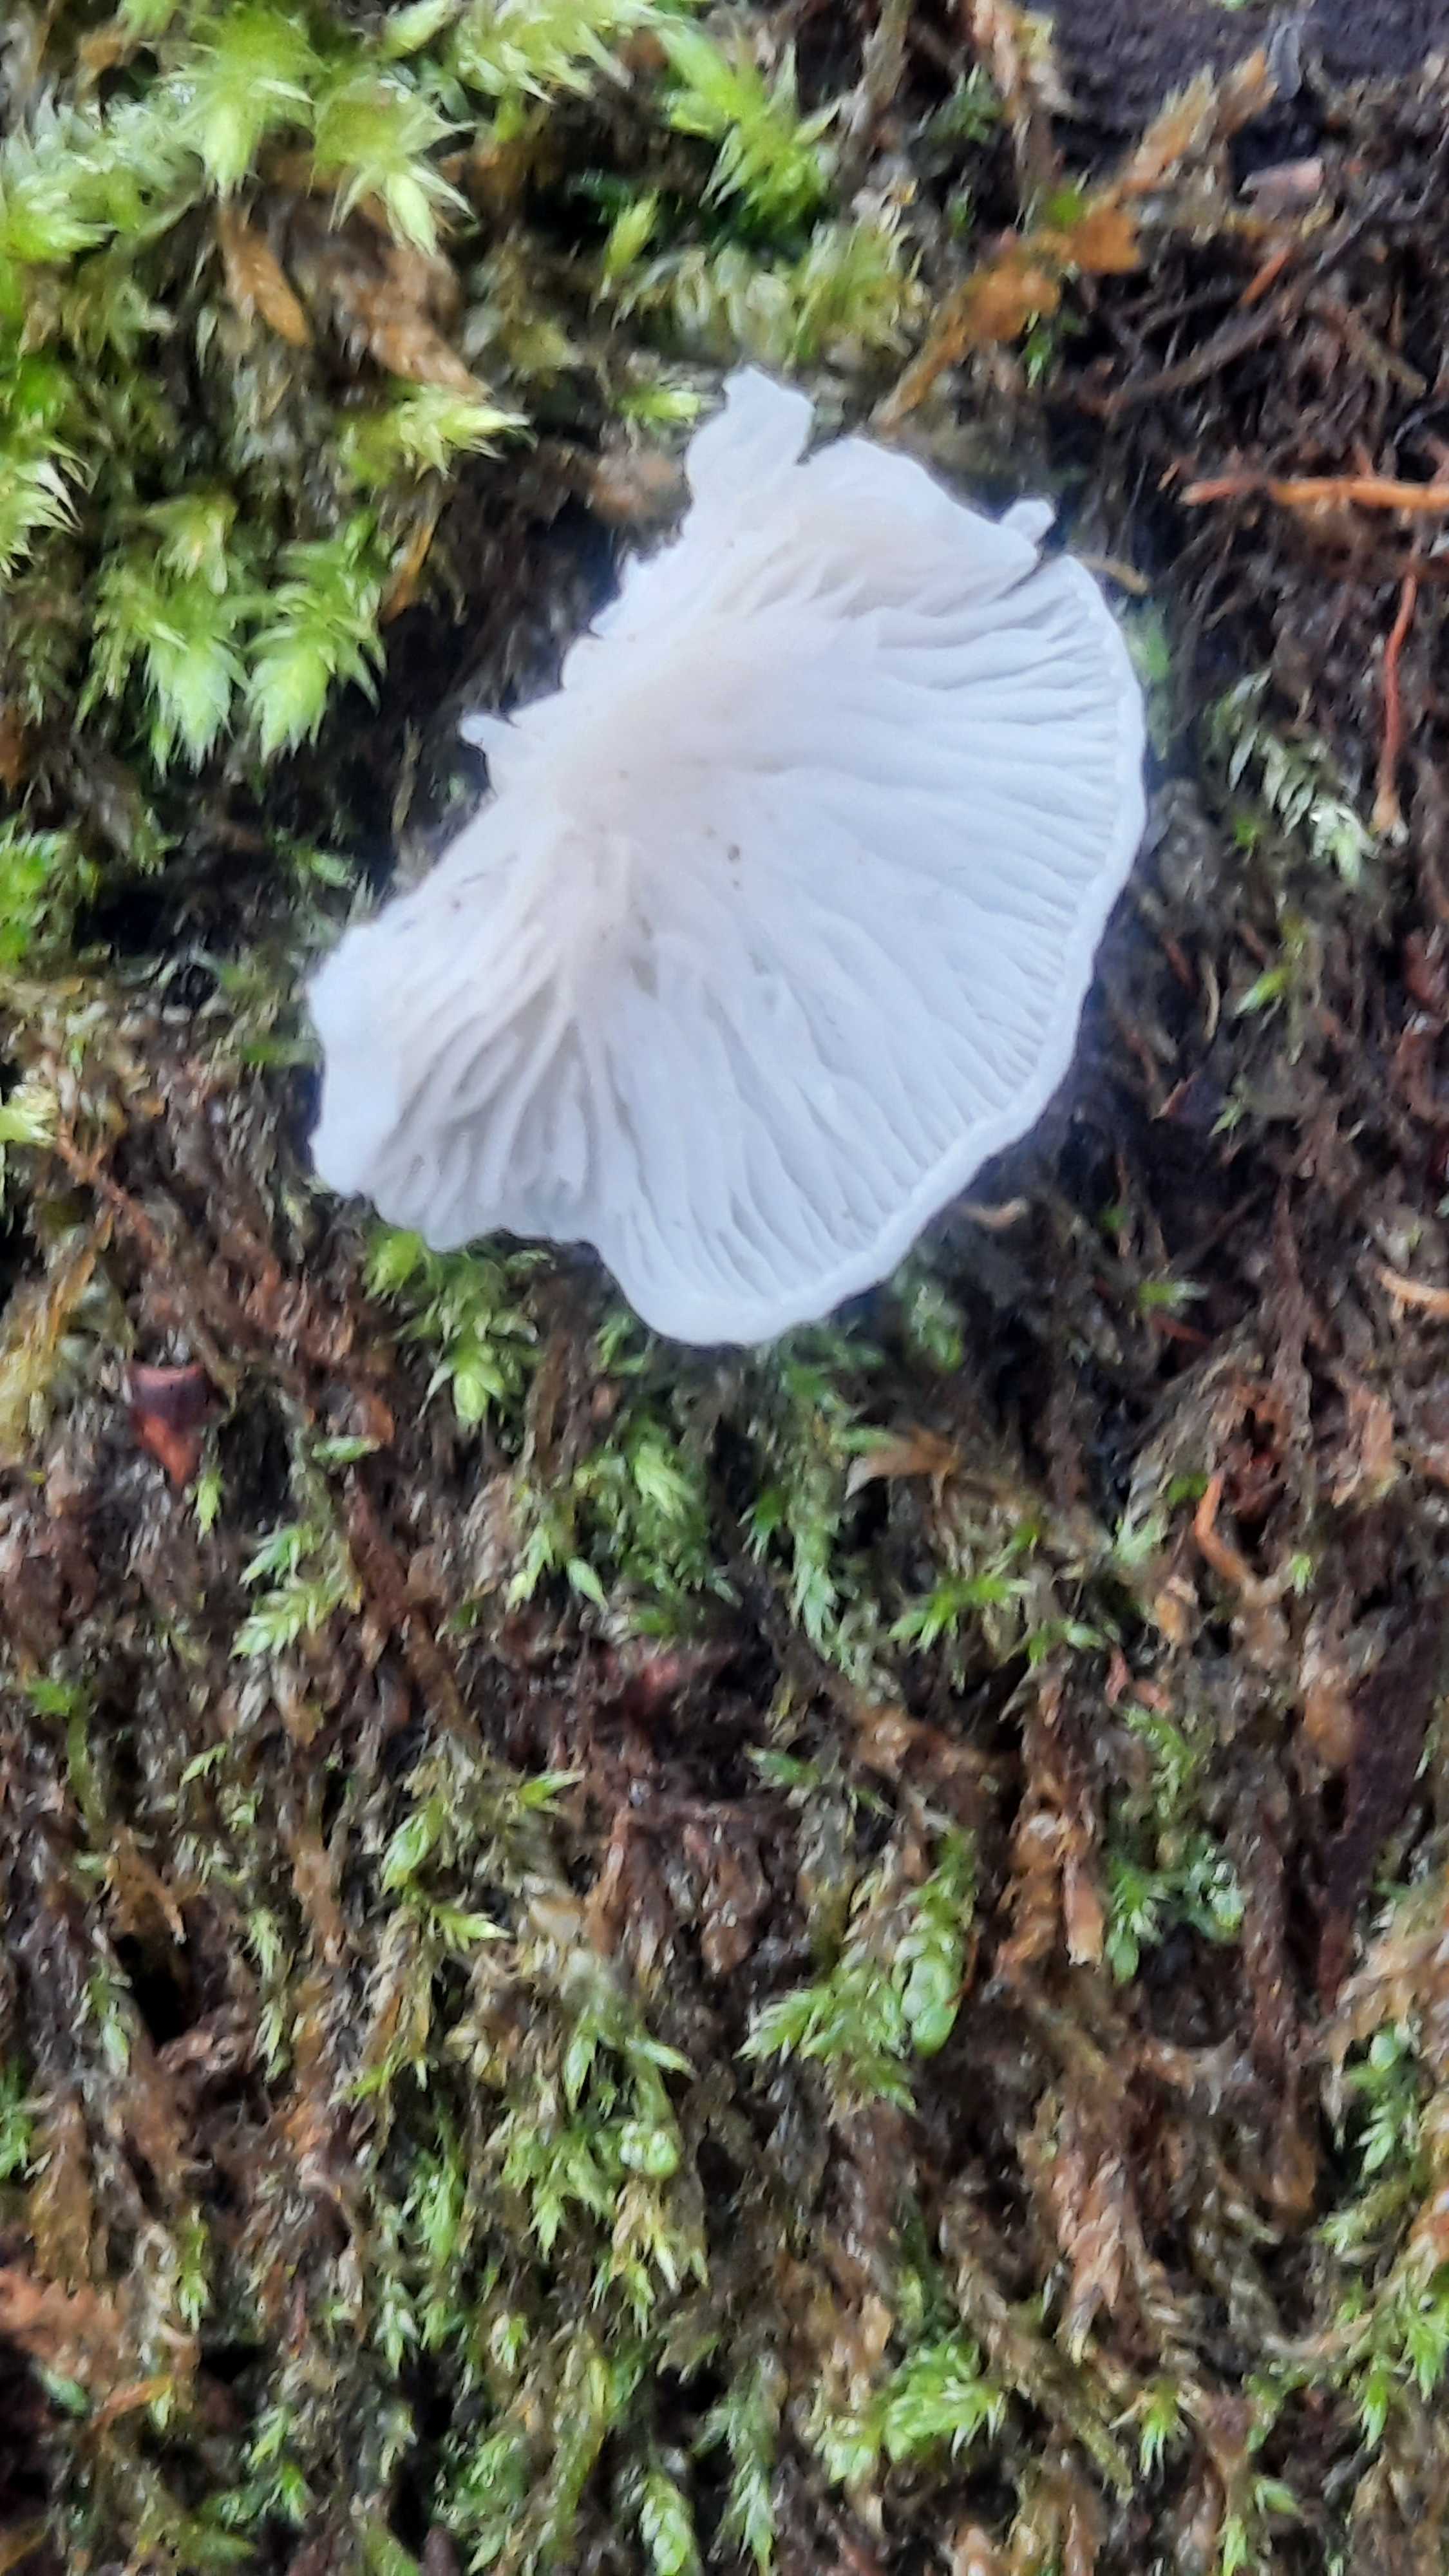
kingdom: Fungi
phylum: Basidiomycota
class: Agaricomycetes
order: Agaricales
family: Entolomataceae
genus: Clitopilus
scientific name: Clitopilus hobsonii
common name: Miller's oysterling
